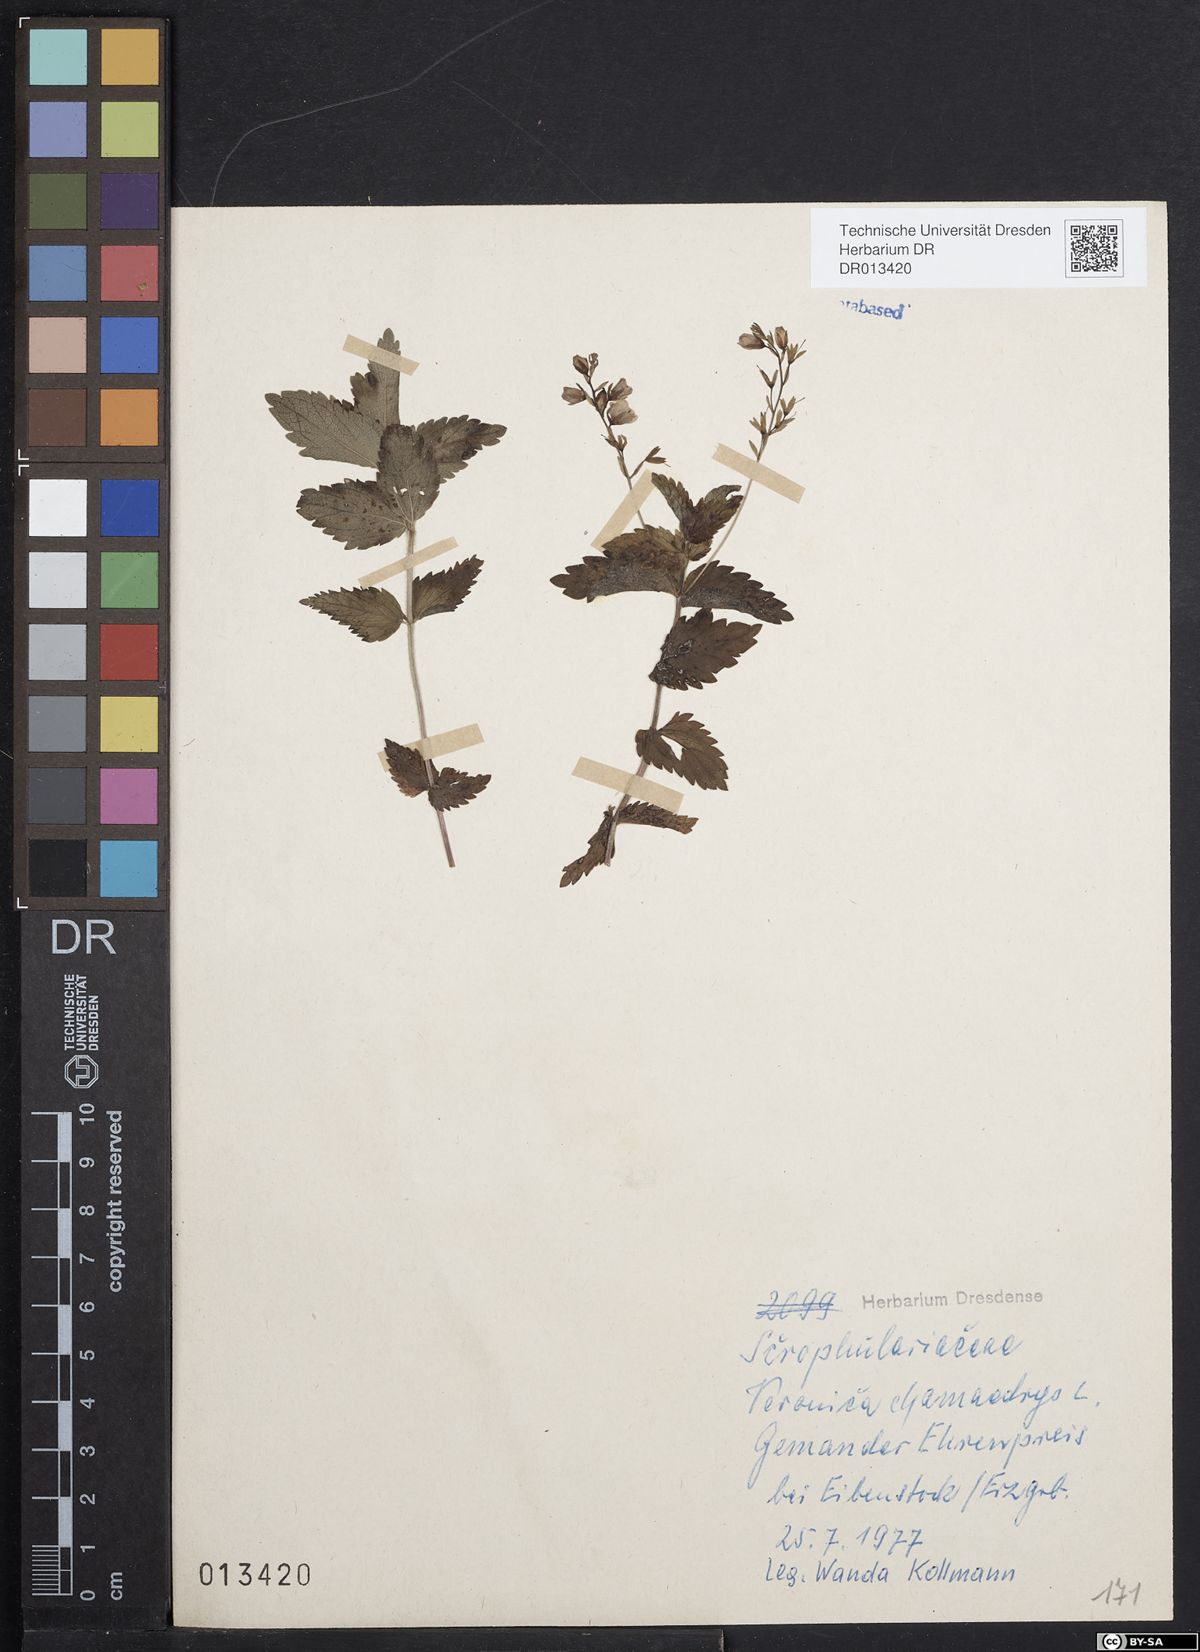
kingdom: Plantae
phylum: Tracheophyta
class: Magnoliopsida
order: Lamiales
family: Plantaginaceae
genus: Veronica
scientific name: Veronica chamaedrys
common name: Germander speedwell
